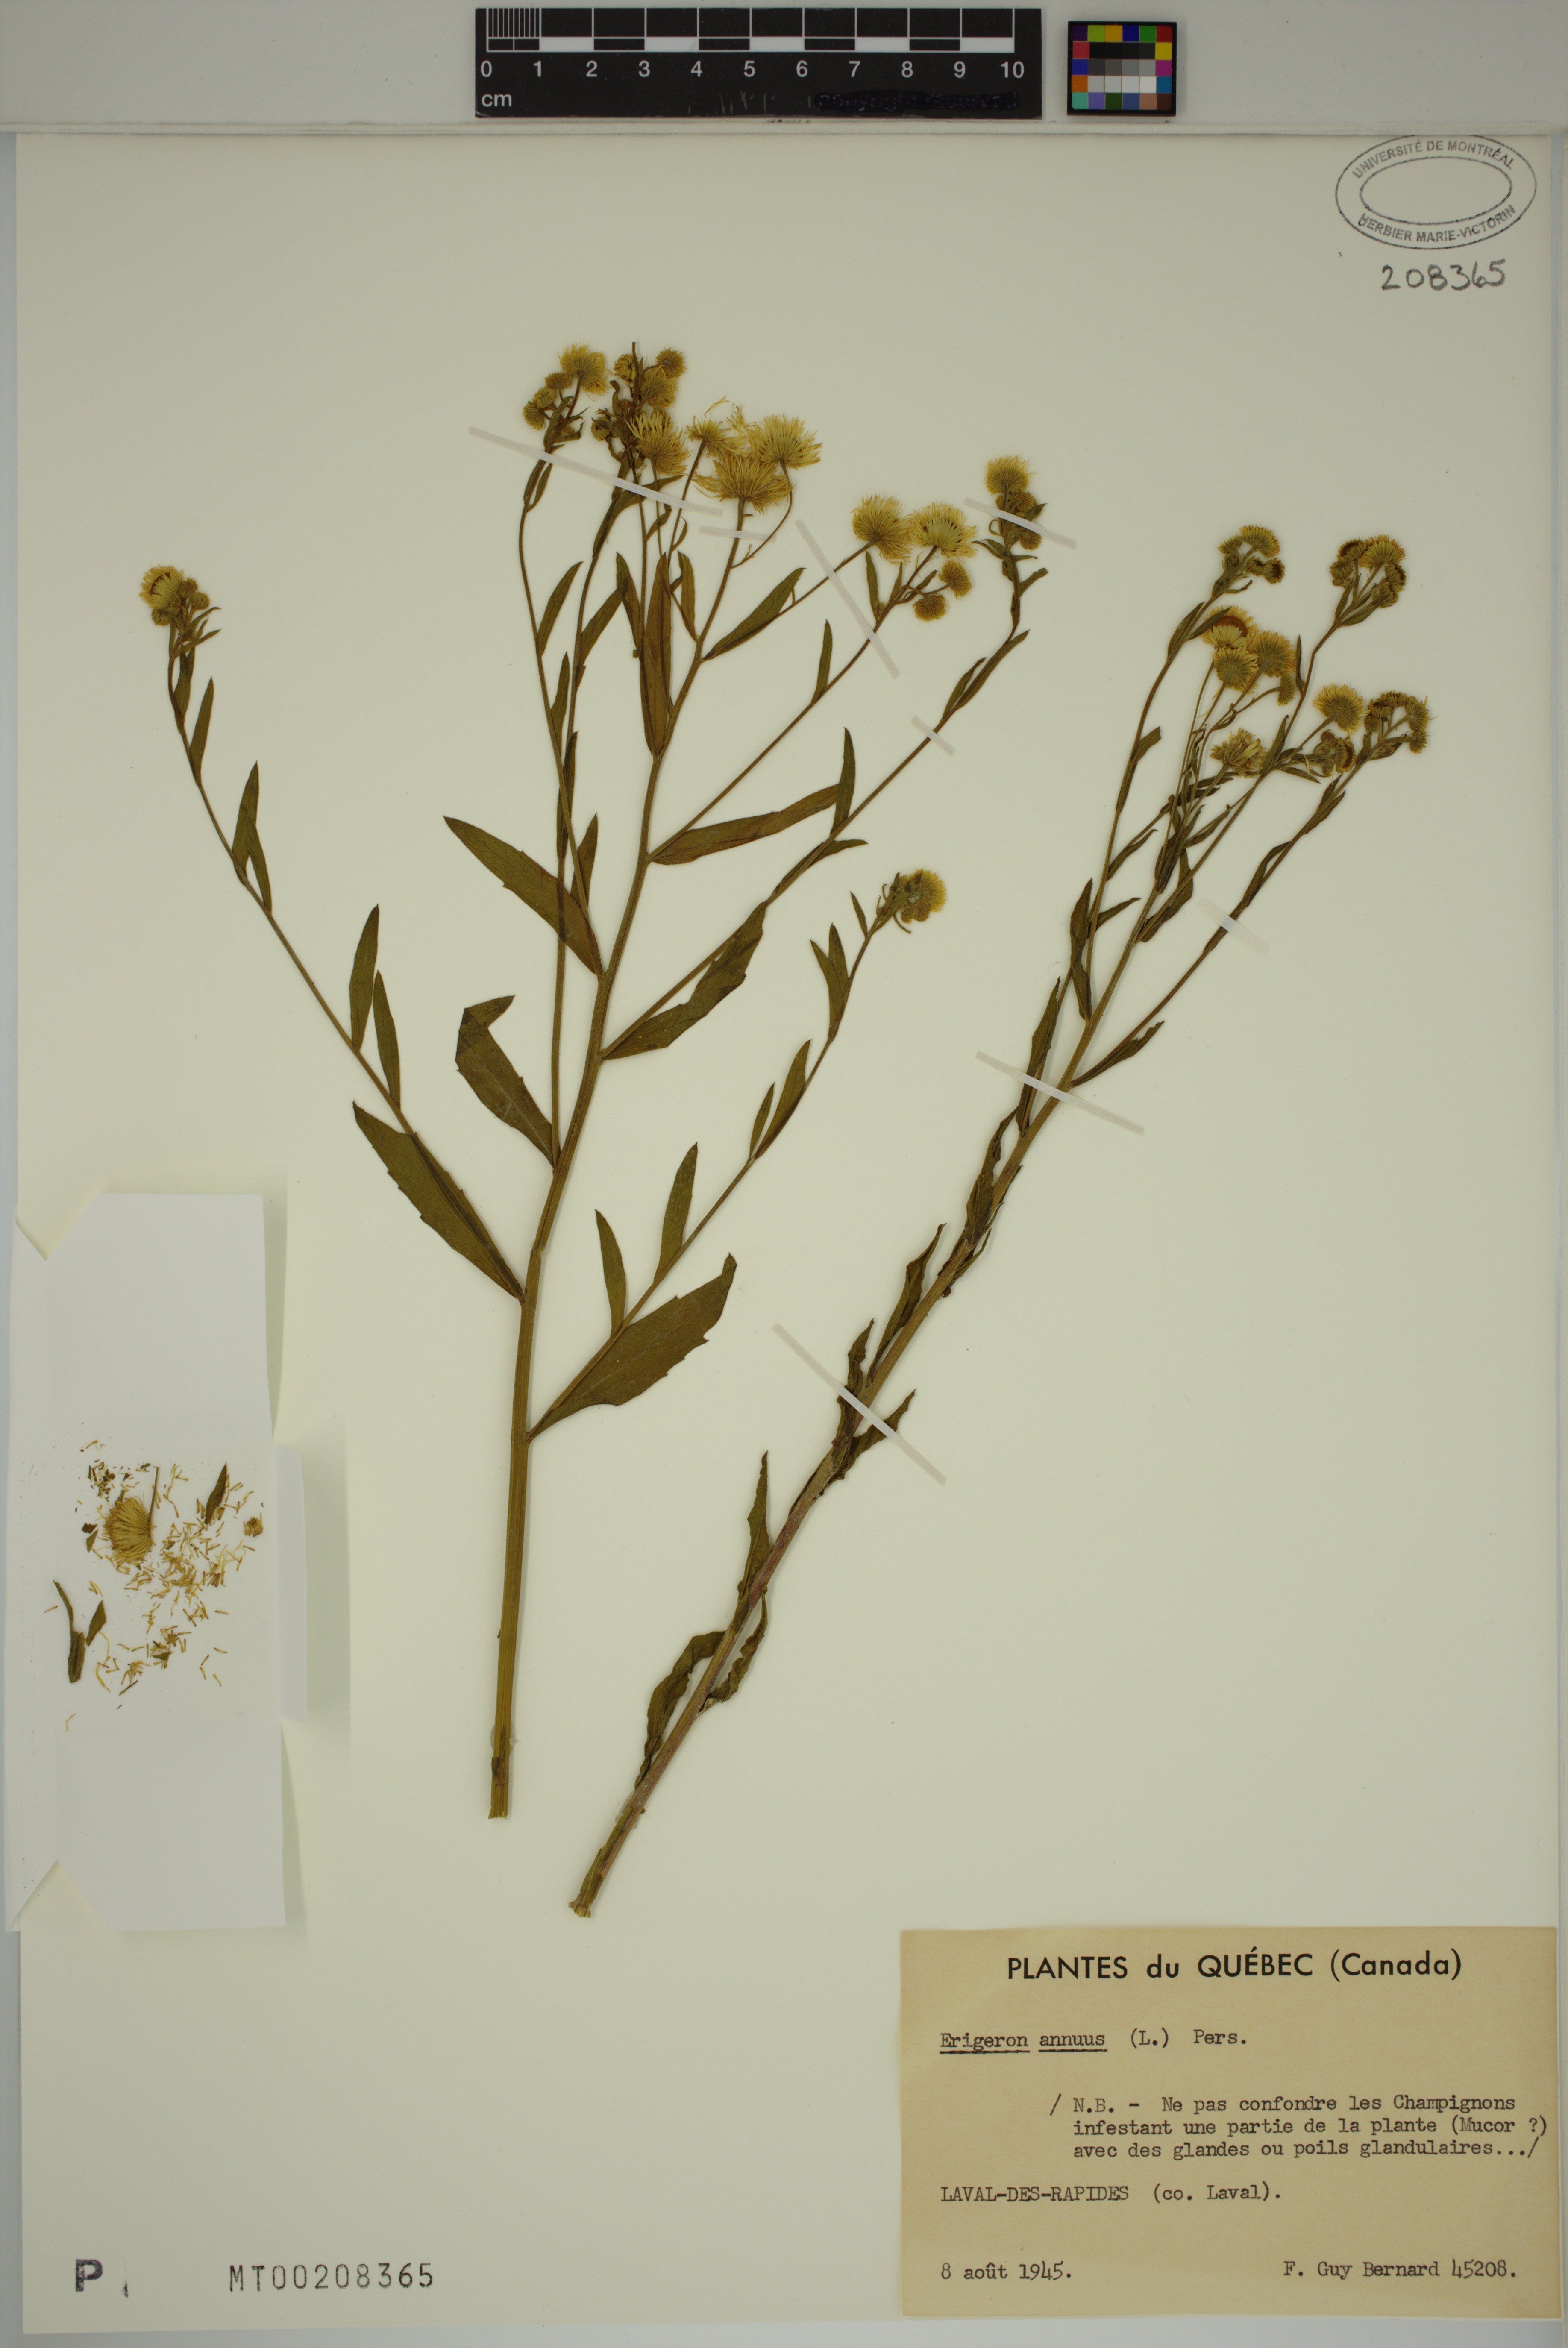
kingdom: Plantae
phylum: Tracheophyta
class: Magnoliopsida
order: Asterales
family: Asteraceae
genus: Erigeron
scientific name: Erigeron annuus
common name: Tall fleabane
